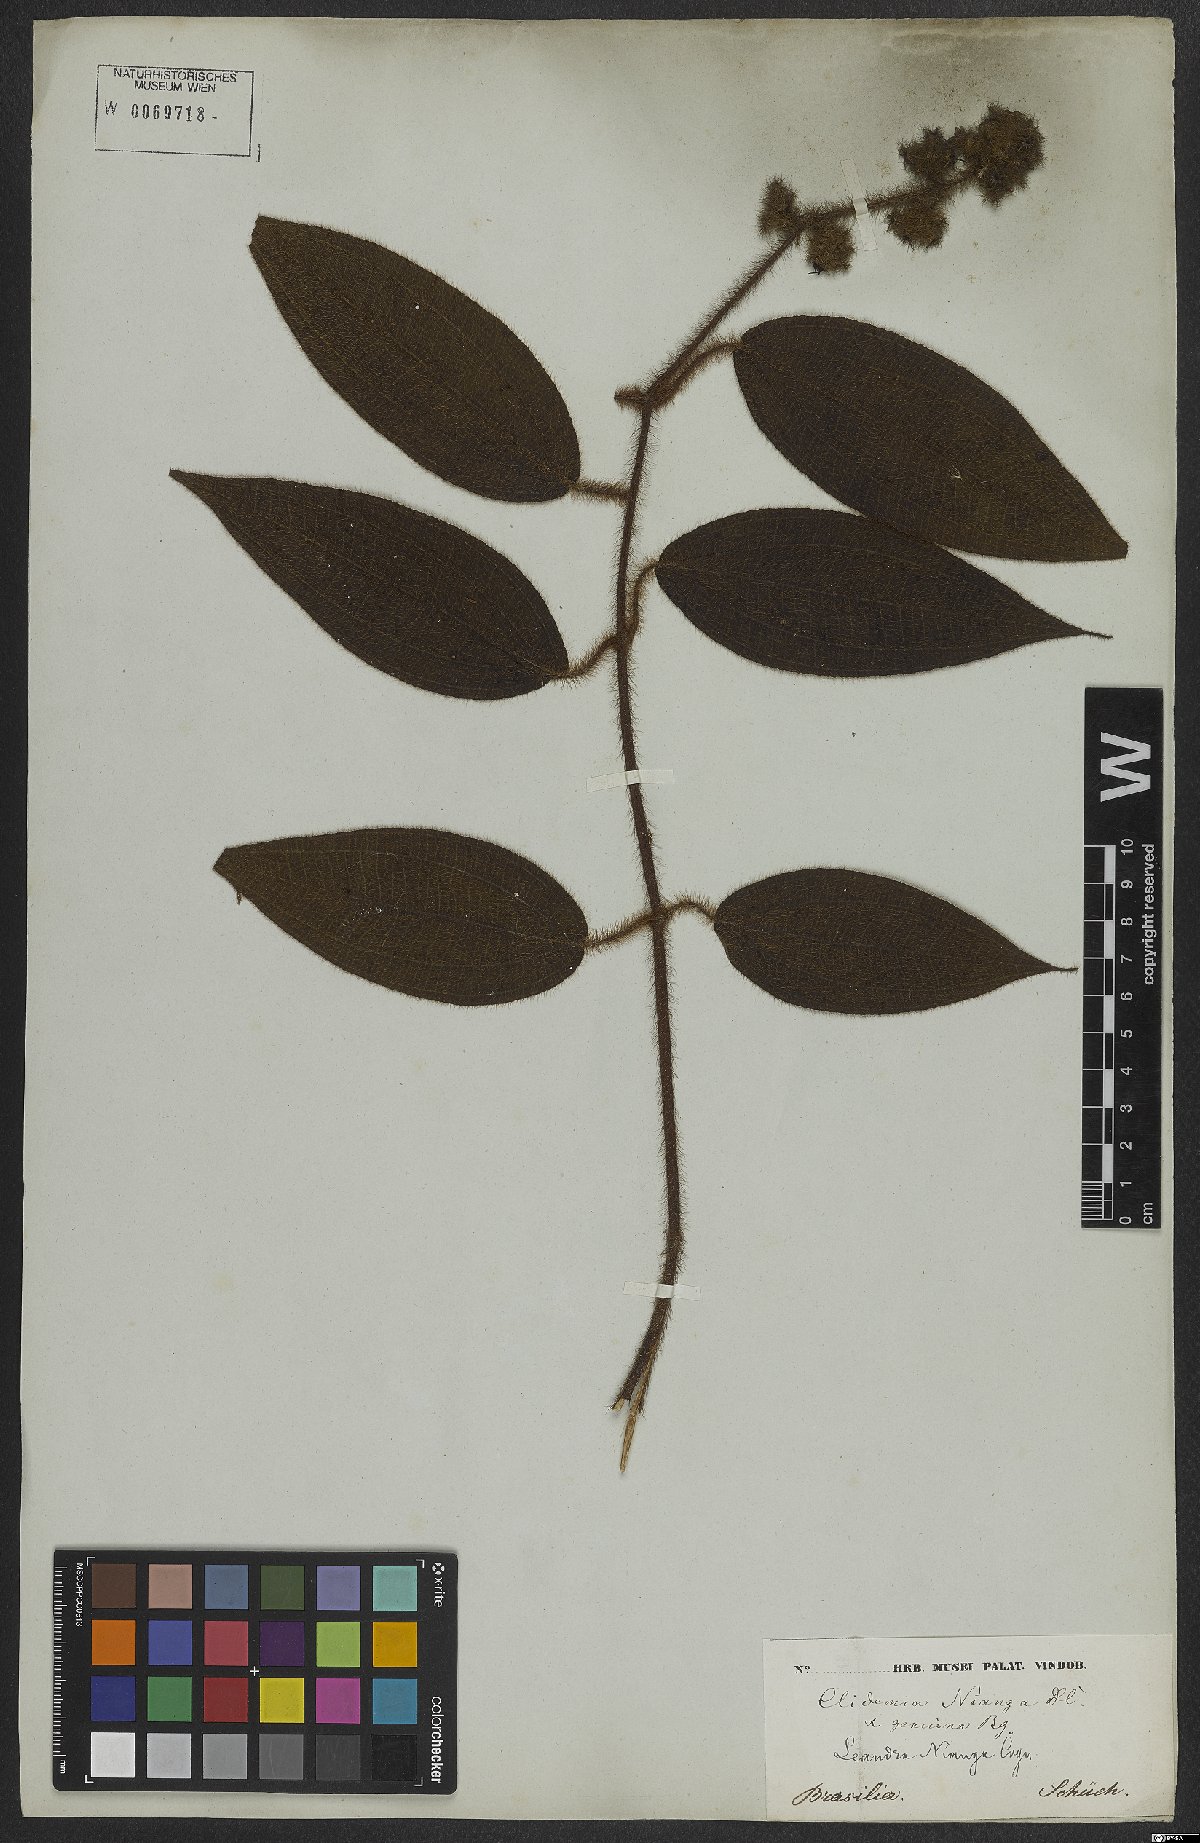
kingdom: Plantae
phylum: Tracheophyta
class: Magnoliopsida
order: Myrtales
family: Melastomataceae
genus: Miconia
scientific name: Miconia nianga
